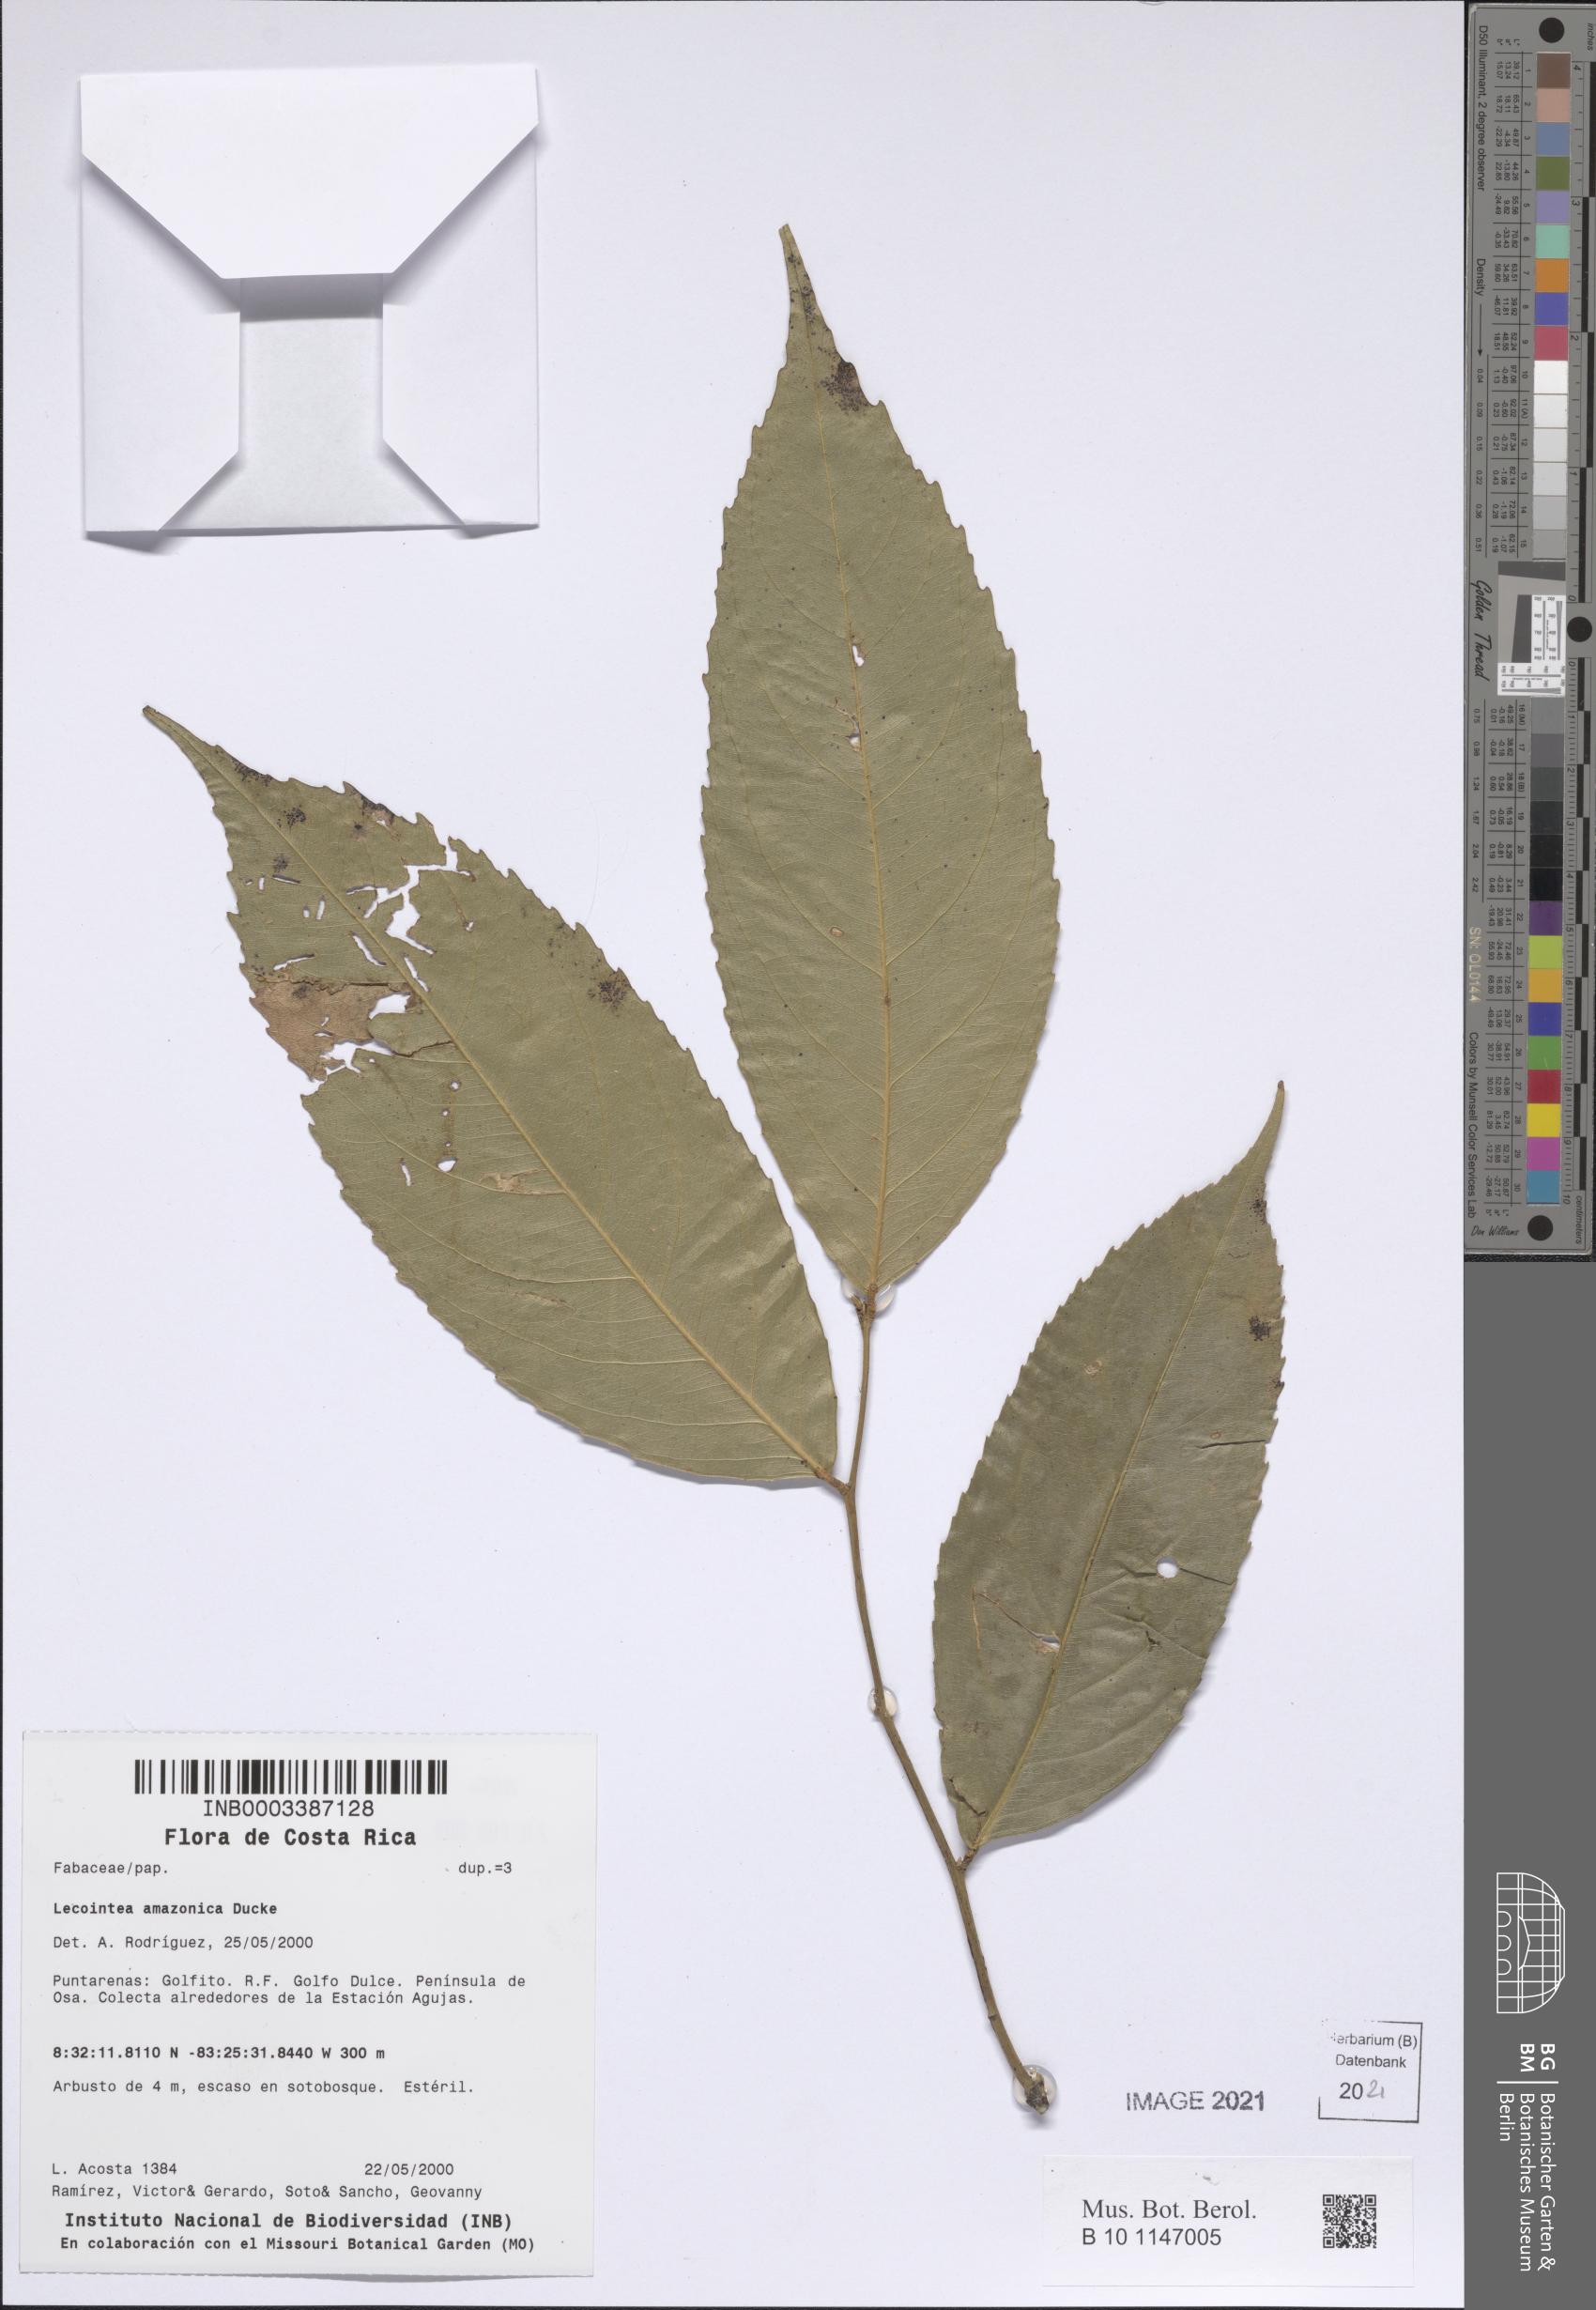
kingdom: Plantae
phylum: Tracheophyta
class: Magnoliopsida
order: Fabales
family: Fabaceae
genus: Lecointea
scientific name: Lecointea amazonica
